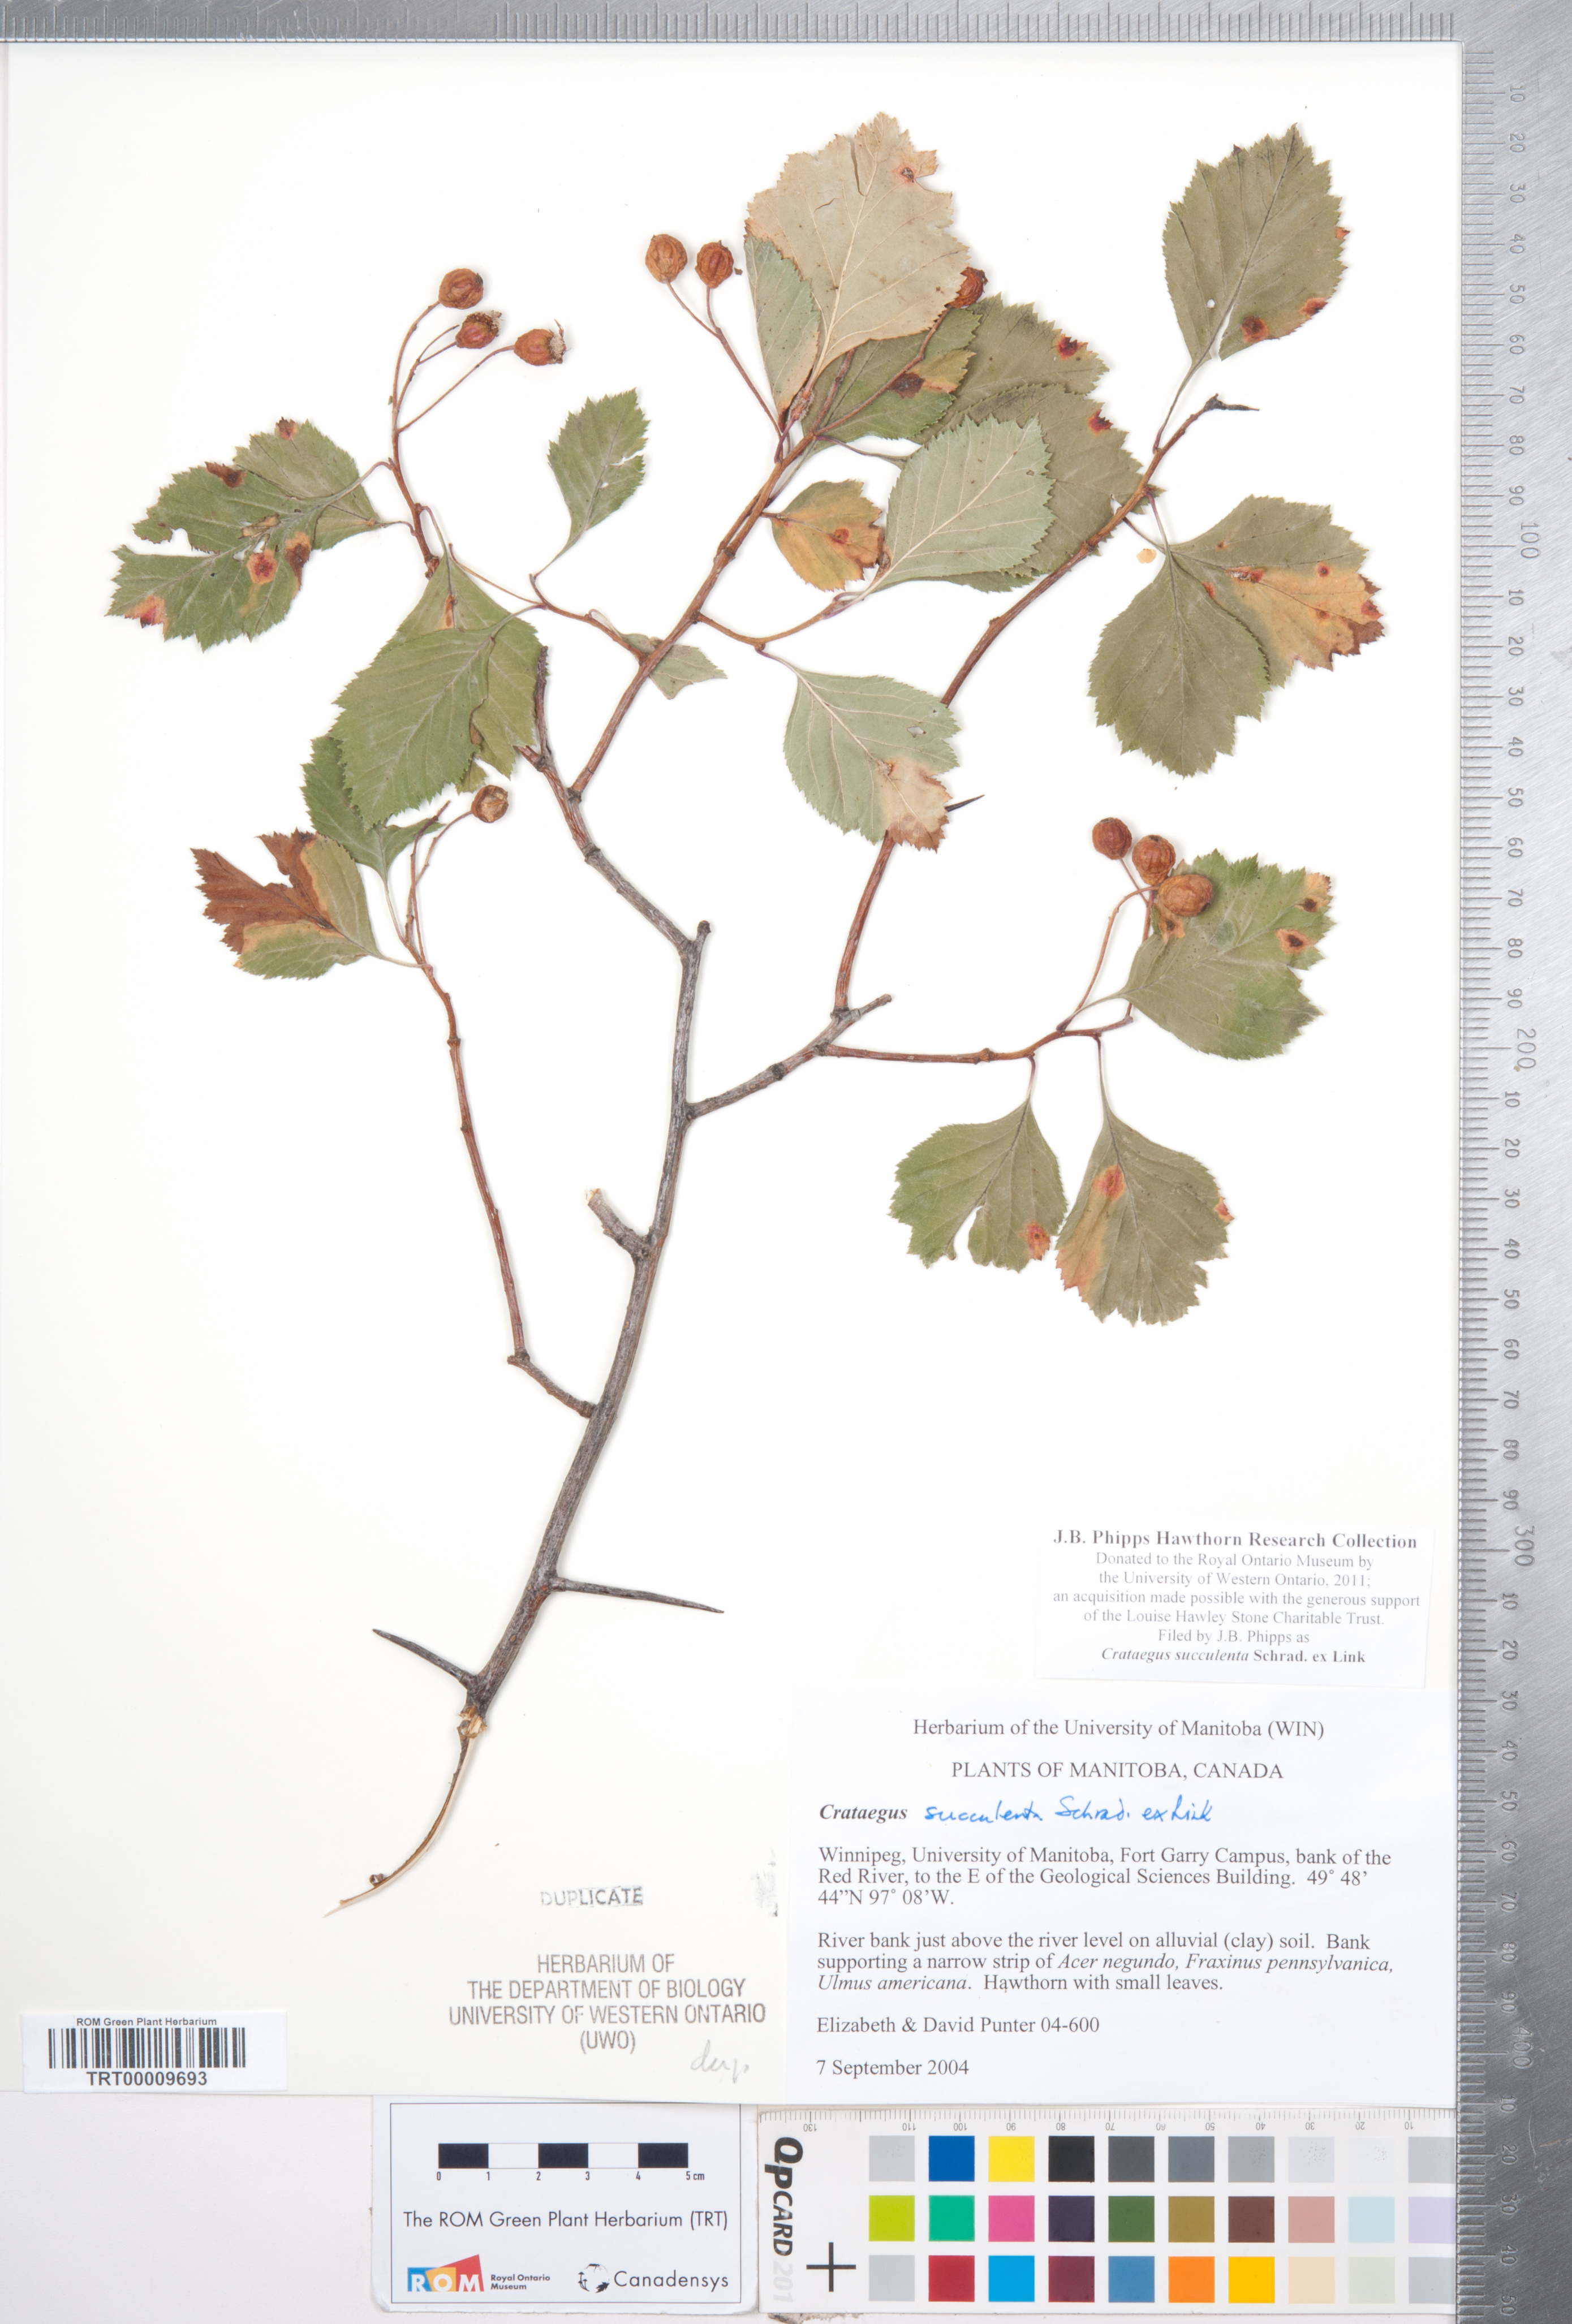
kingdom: Plantae
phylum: Tracheophyta
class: Magnoliopsida
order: Rosales
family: Rosaceae
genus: Crataegus
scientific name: Crataegus succulenta
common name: Fleshy hawthorn
